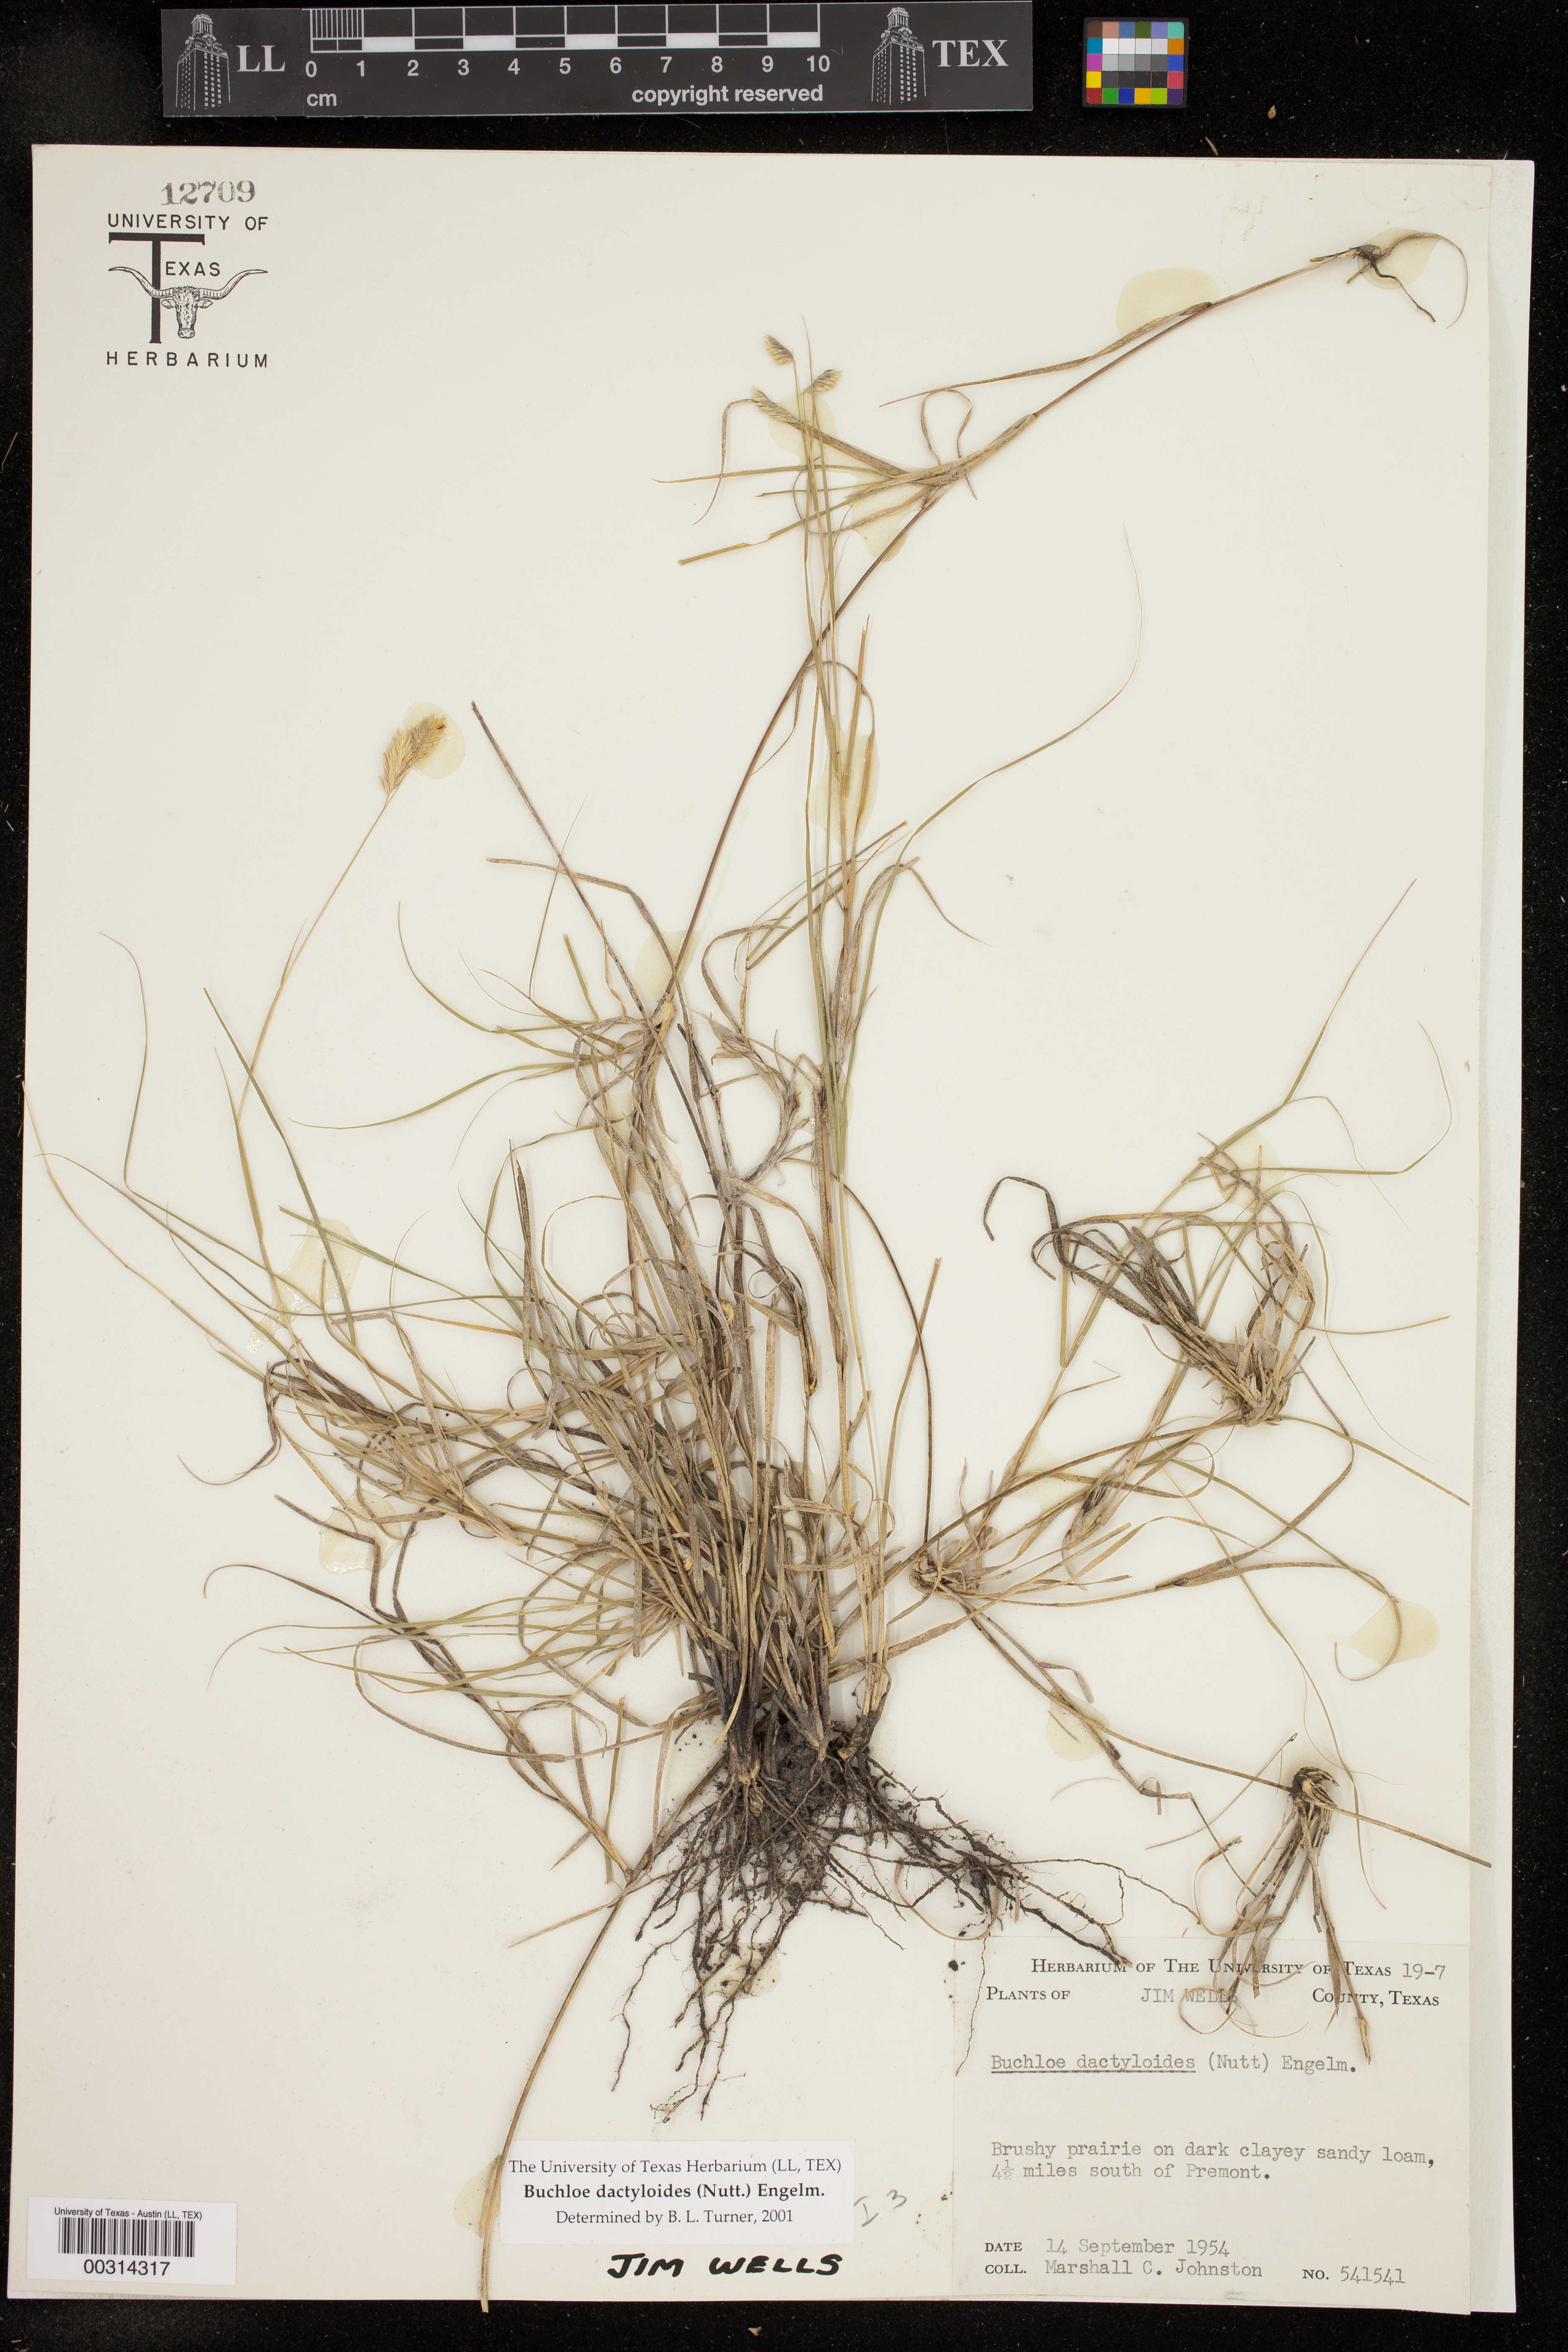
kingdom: Plantae
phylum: Tracheophyta
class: Liliopsida
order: Poales
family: Poaceae
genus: Bouteloua
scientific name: Bouteloua dactyloides
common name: Buffalo grass
